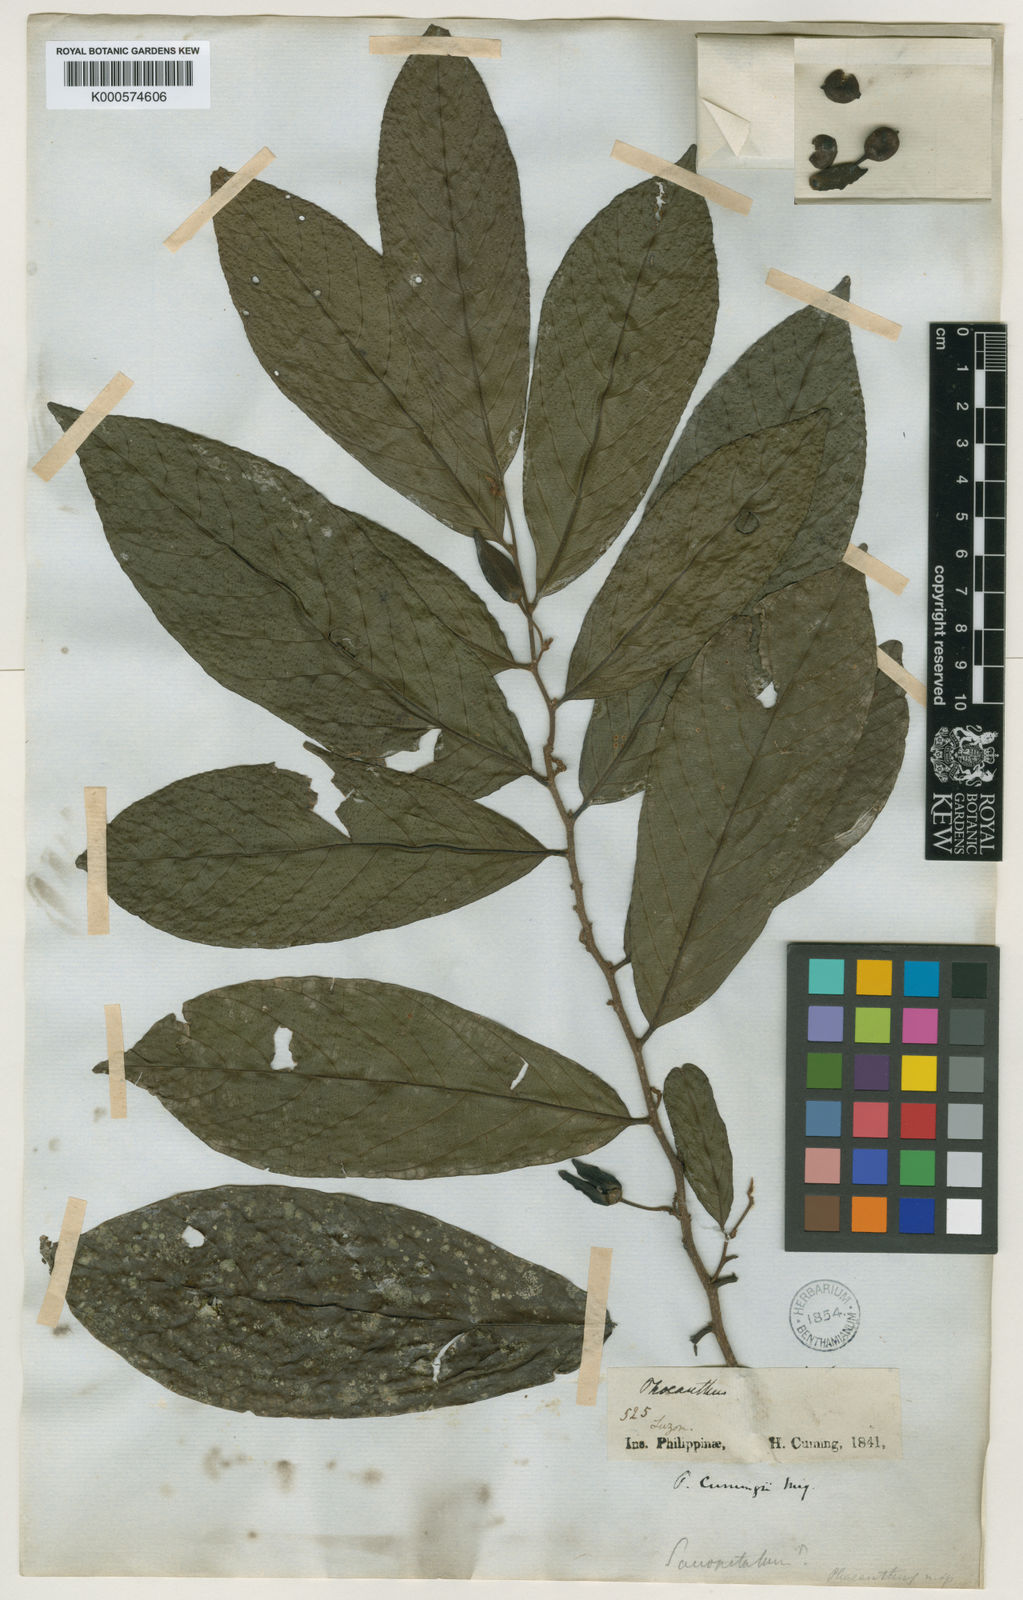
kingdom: Plantae
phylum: Tracheophyta
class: Magnoliopsida
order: Magnoliales
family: Annonaceae
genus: Phaeanthus
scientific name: Phaeanthus ophthalmicus
